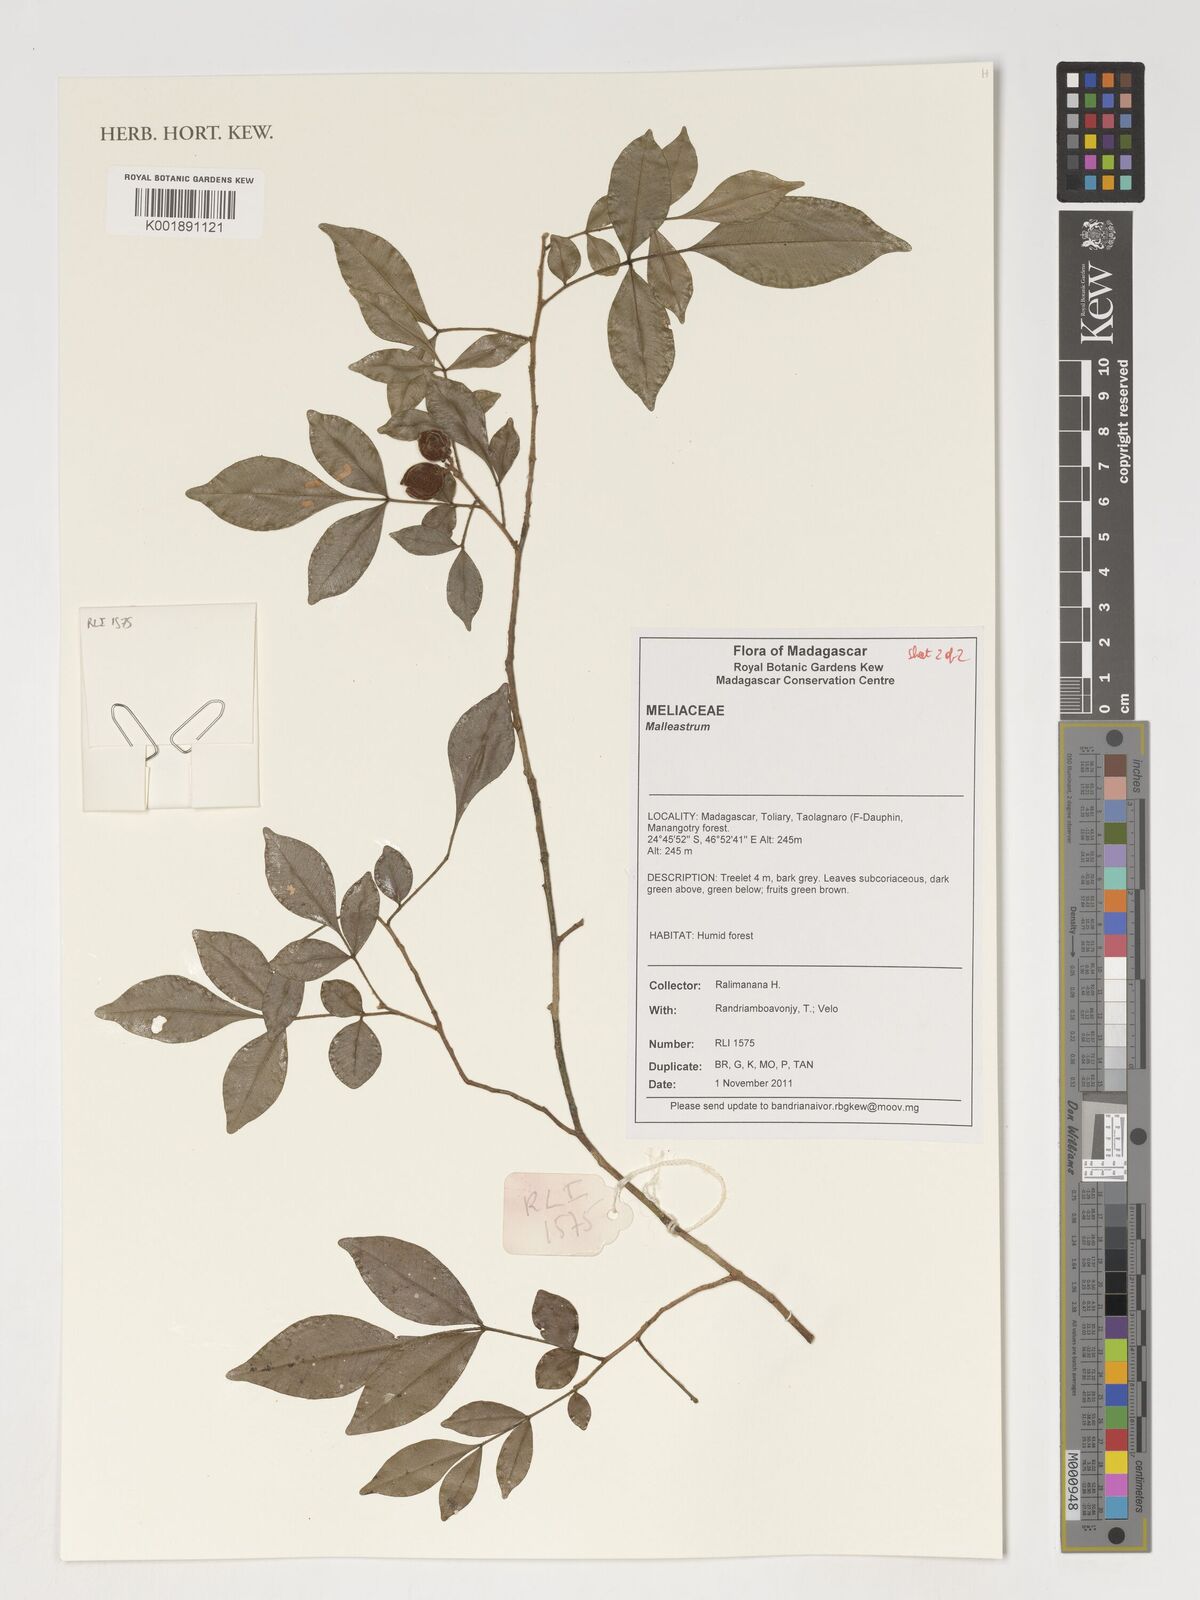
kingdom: Plantae
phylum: Tracheophyta
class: Magnoliopsida
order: Lamiales
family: Lamiaceae
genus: Clerodendrum
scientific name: Clerodendrum petunioides
